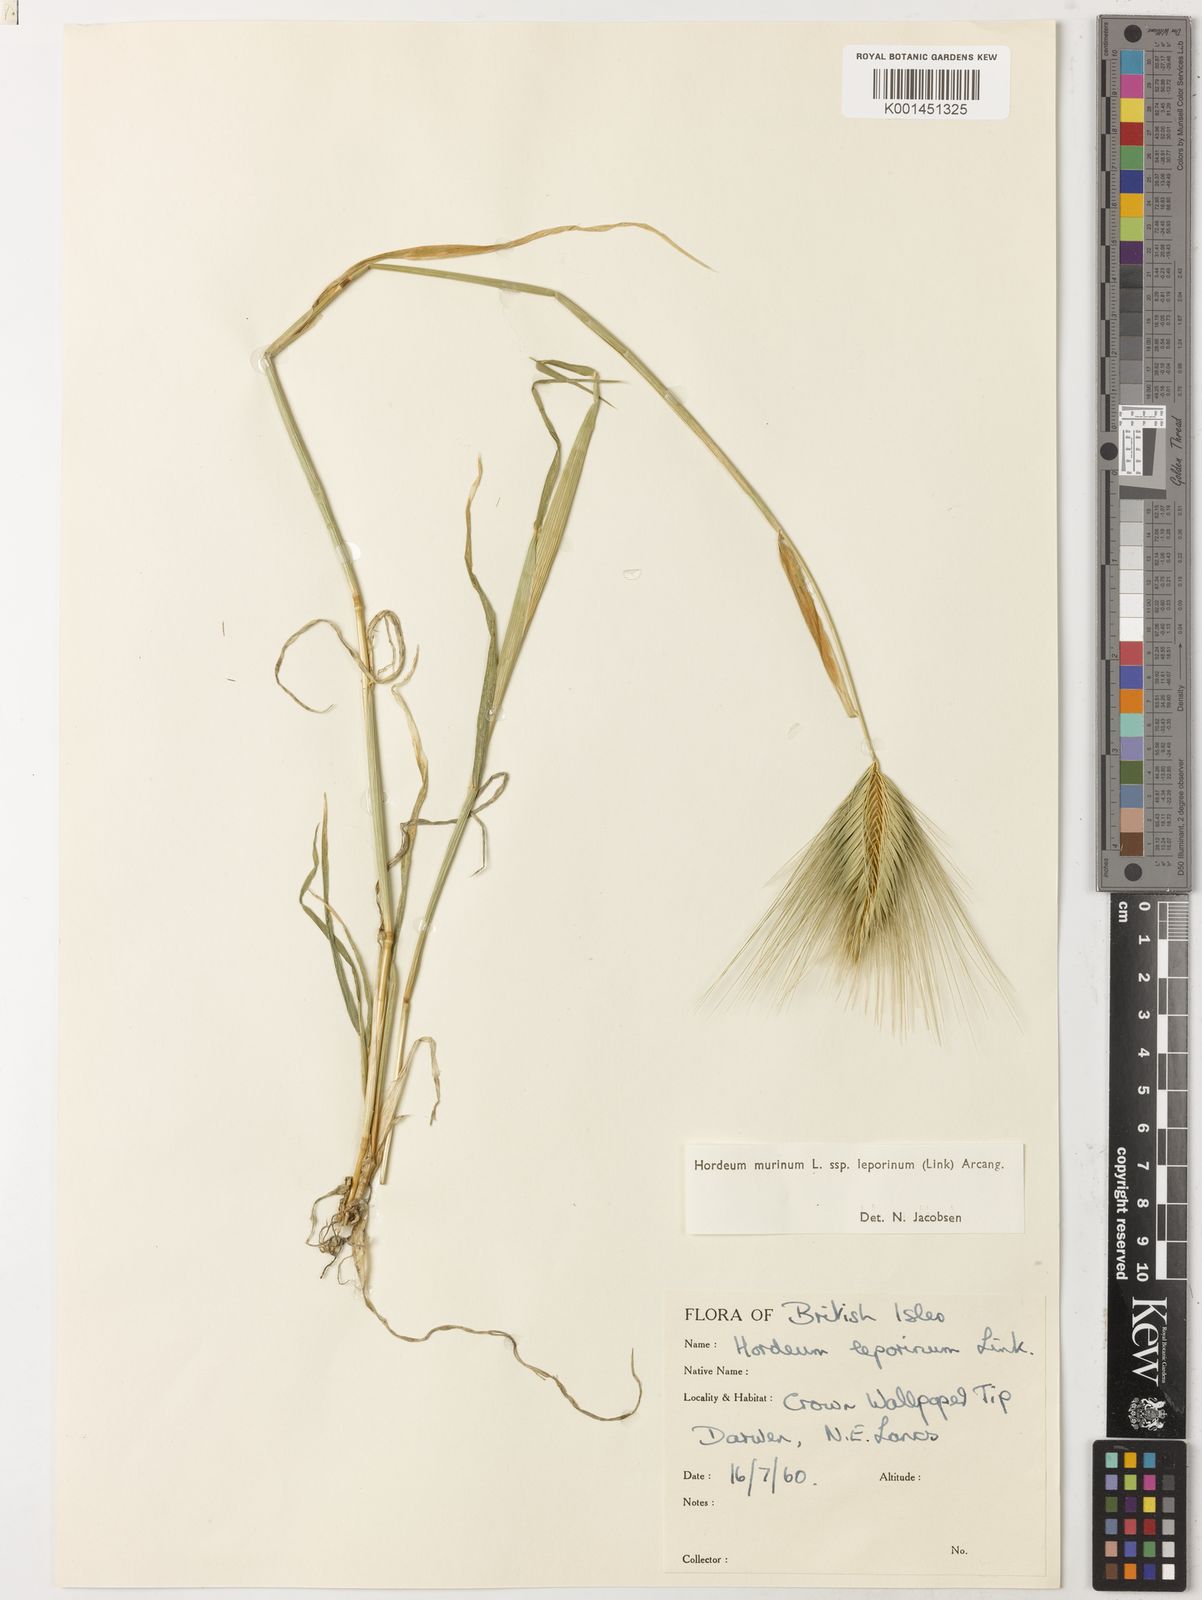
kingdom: Plantae
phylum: Tracheophyta
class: Liliopsida
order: Poales
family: Poaceae
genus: Hordeum
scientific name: Hordeum murinum
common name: Wall barley
